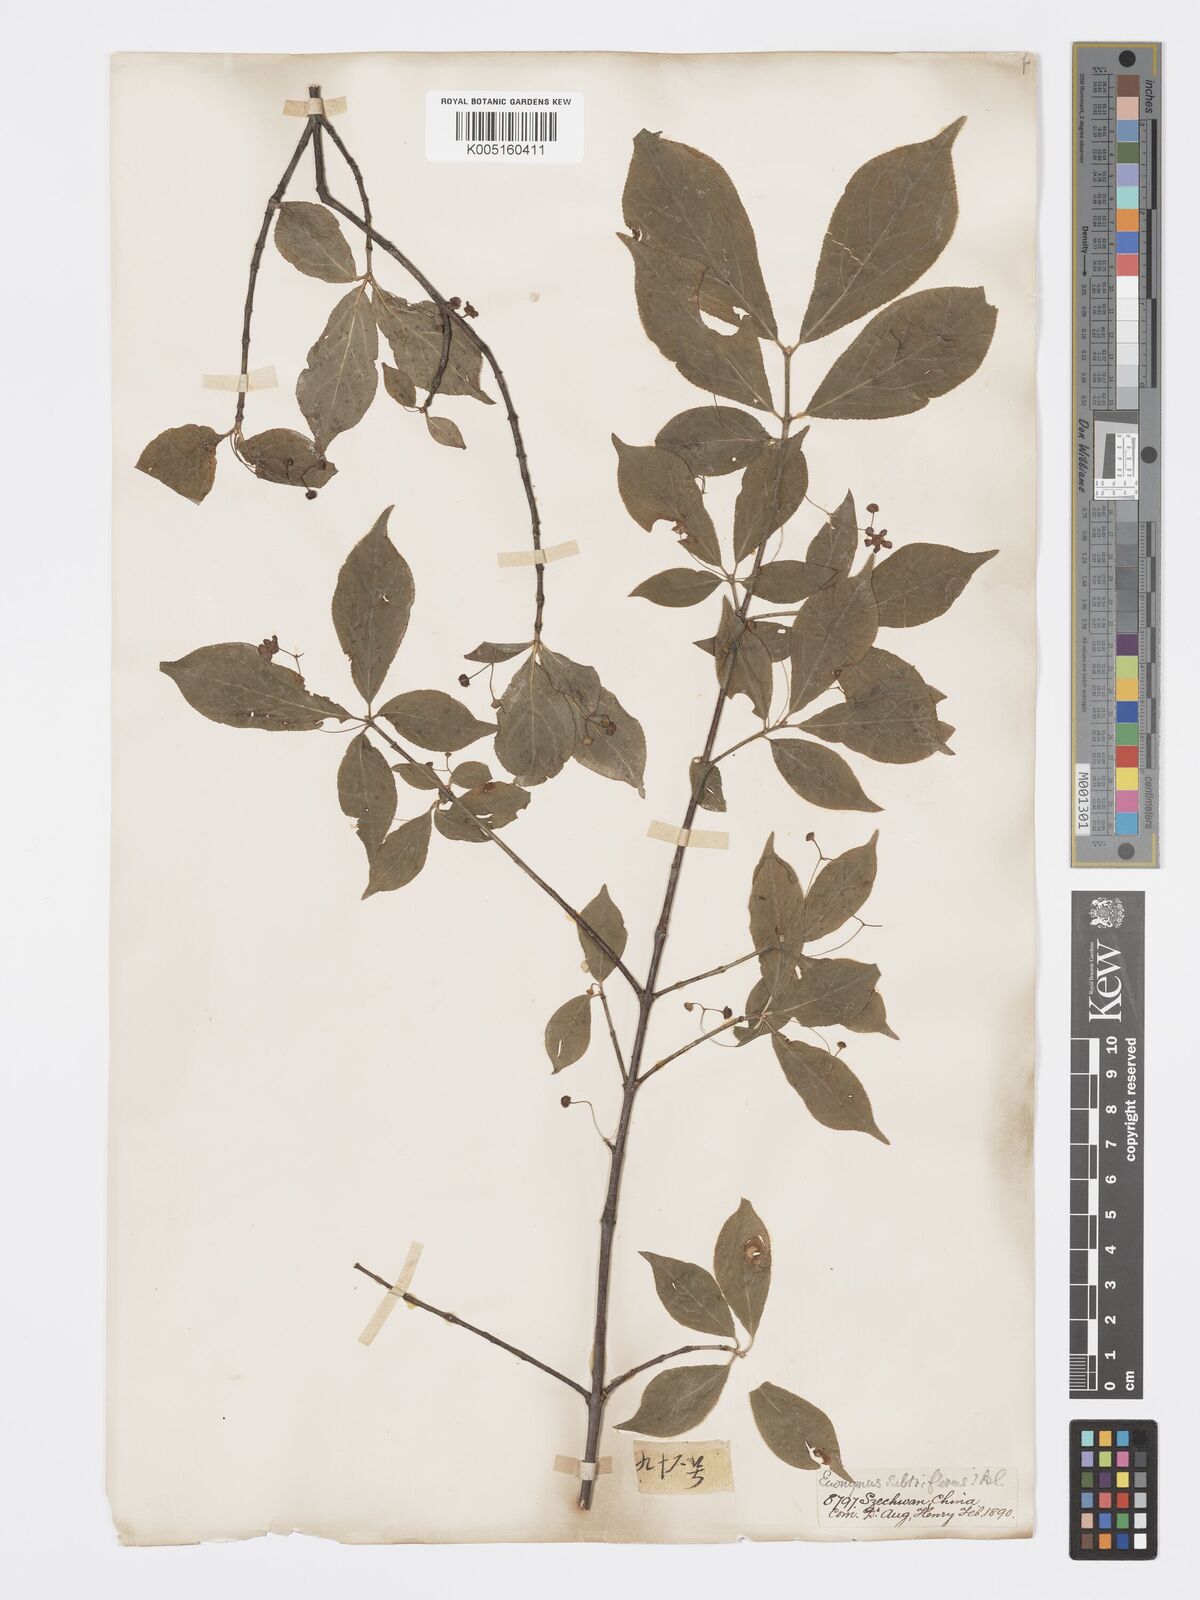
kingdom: Plantae
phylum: Tracheophyta
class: Magnoliopsida
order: Celastrales
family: Celastraceae
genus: Euonymus
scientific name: Euonymus
